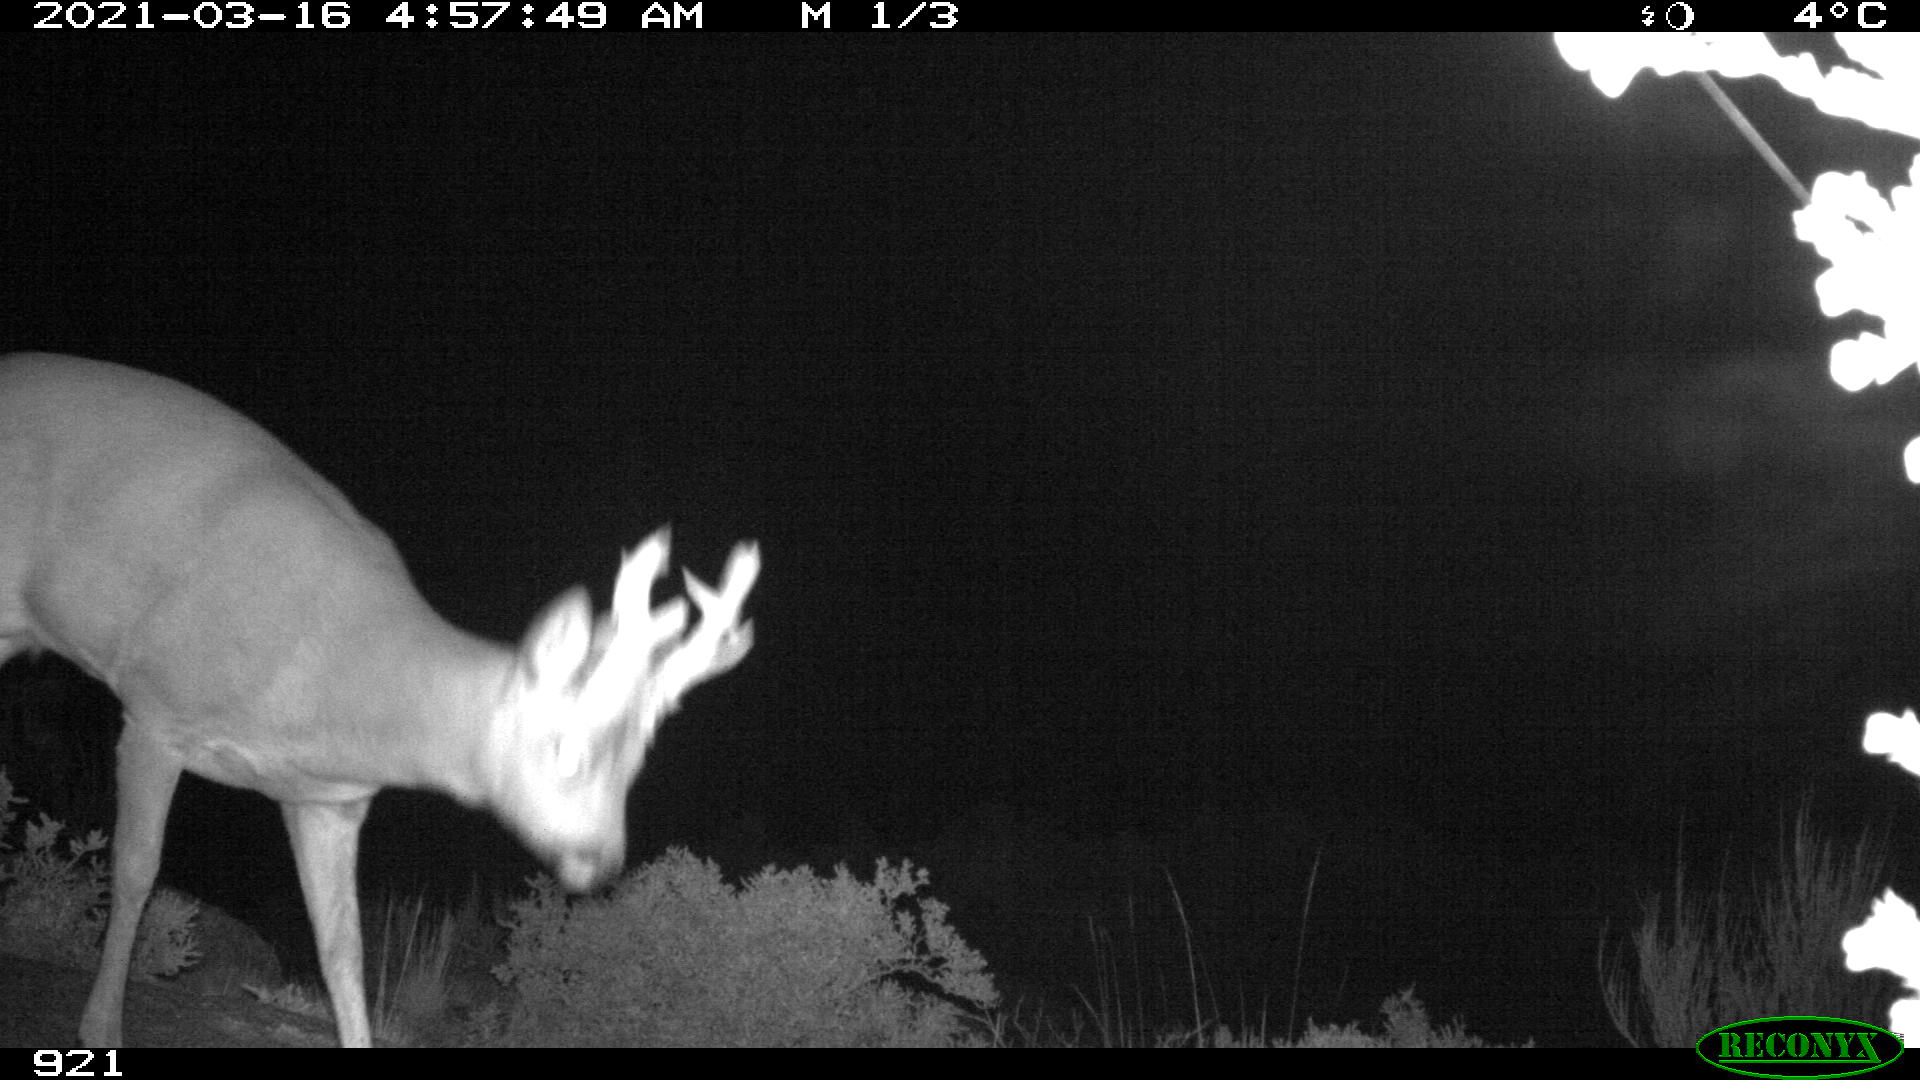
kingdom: Animalia
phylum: Chordata
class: Mammalia
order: Artiodactyla
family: Cervidae
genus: Capreolus
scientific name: Capreolus capreolus
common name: Western roe deer
